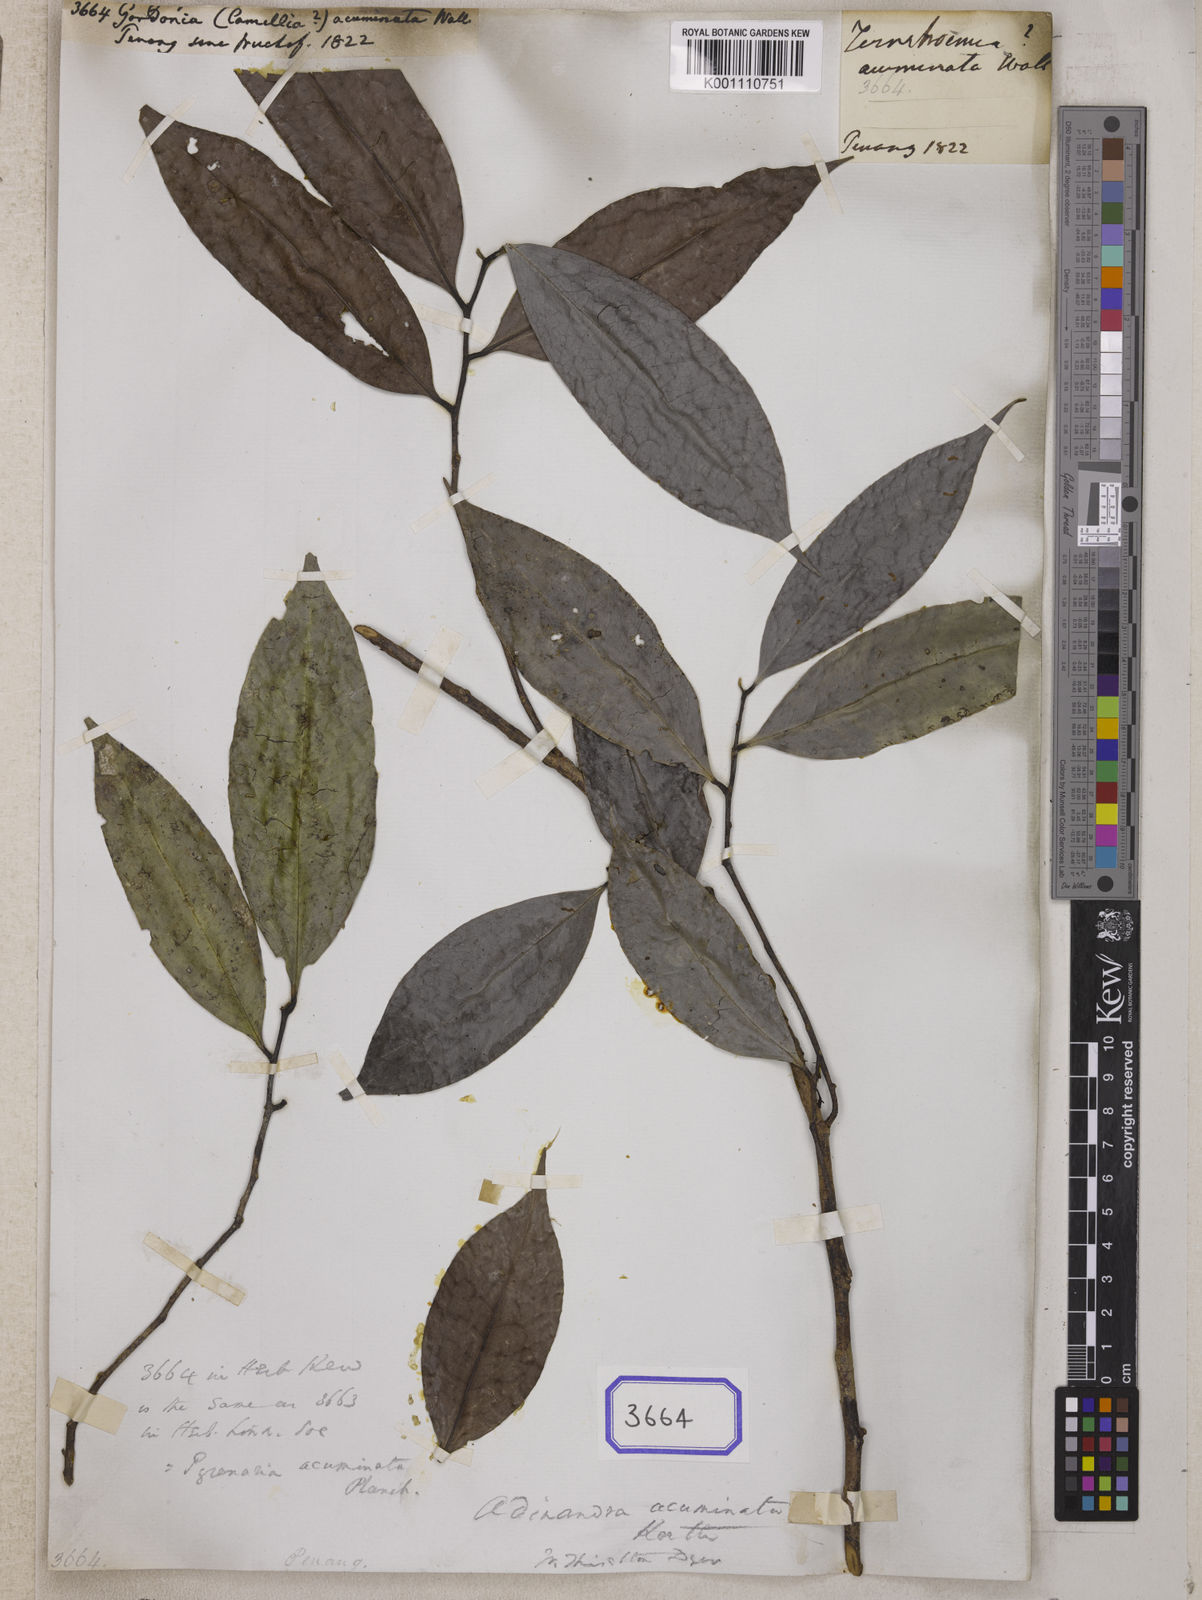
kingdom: Plantae
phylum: Tracheophyta
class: Magnoliopsida
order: Ericales
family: Theaceae
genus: Gordonia
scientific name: Gordonia
